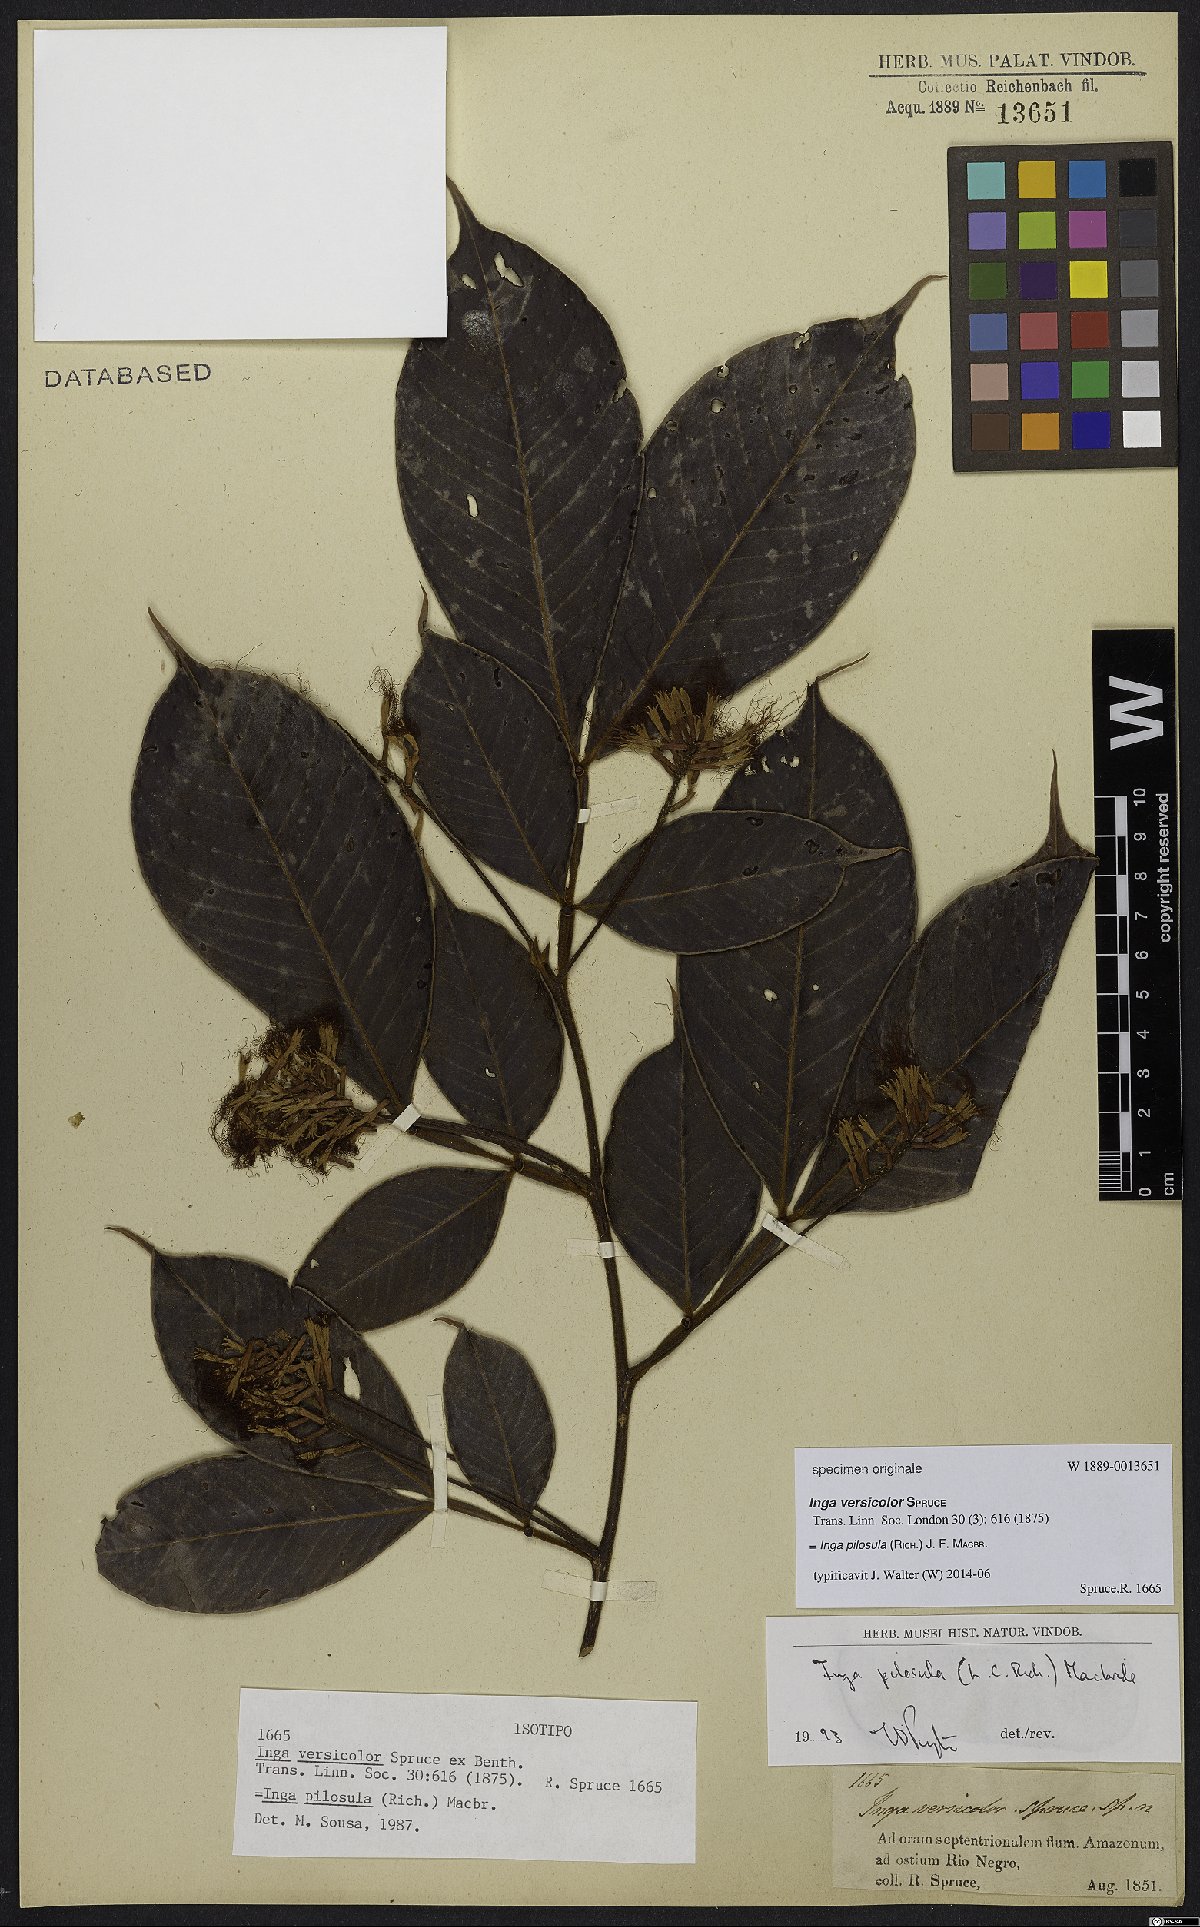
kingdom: Plantae
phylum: Tracheophyta
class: Magnoliopsida
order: Fabales
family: Fabaceae
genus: Inga
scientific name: Inga pilosula
